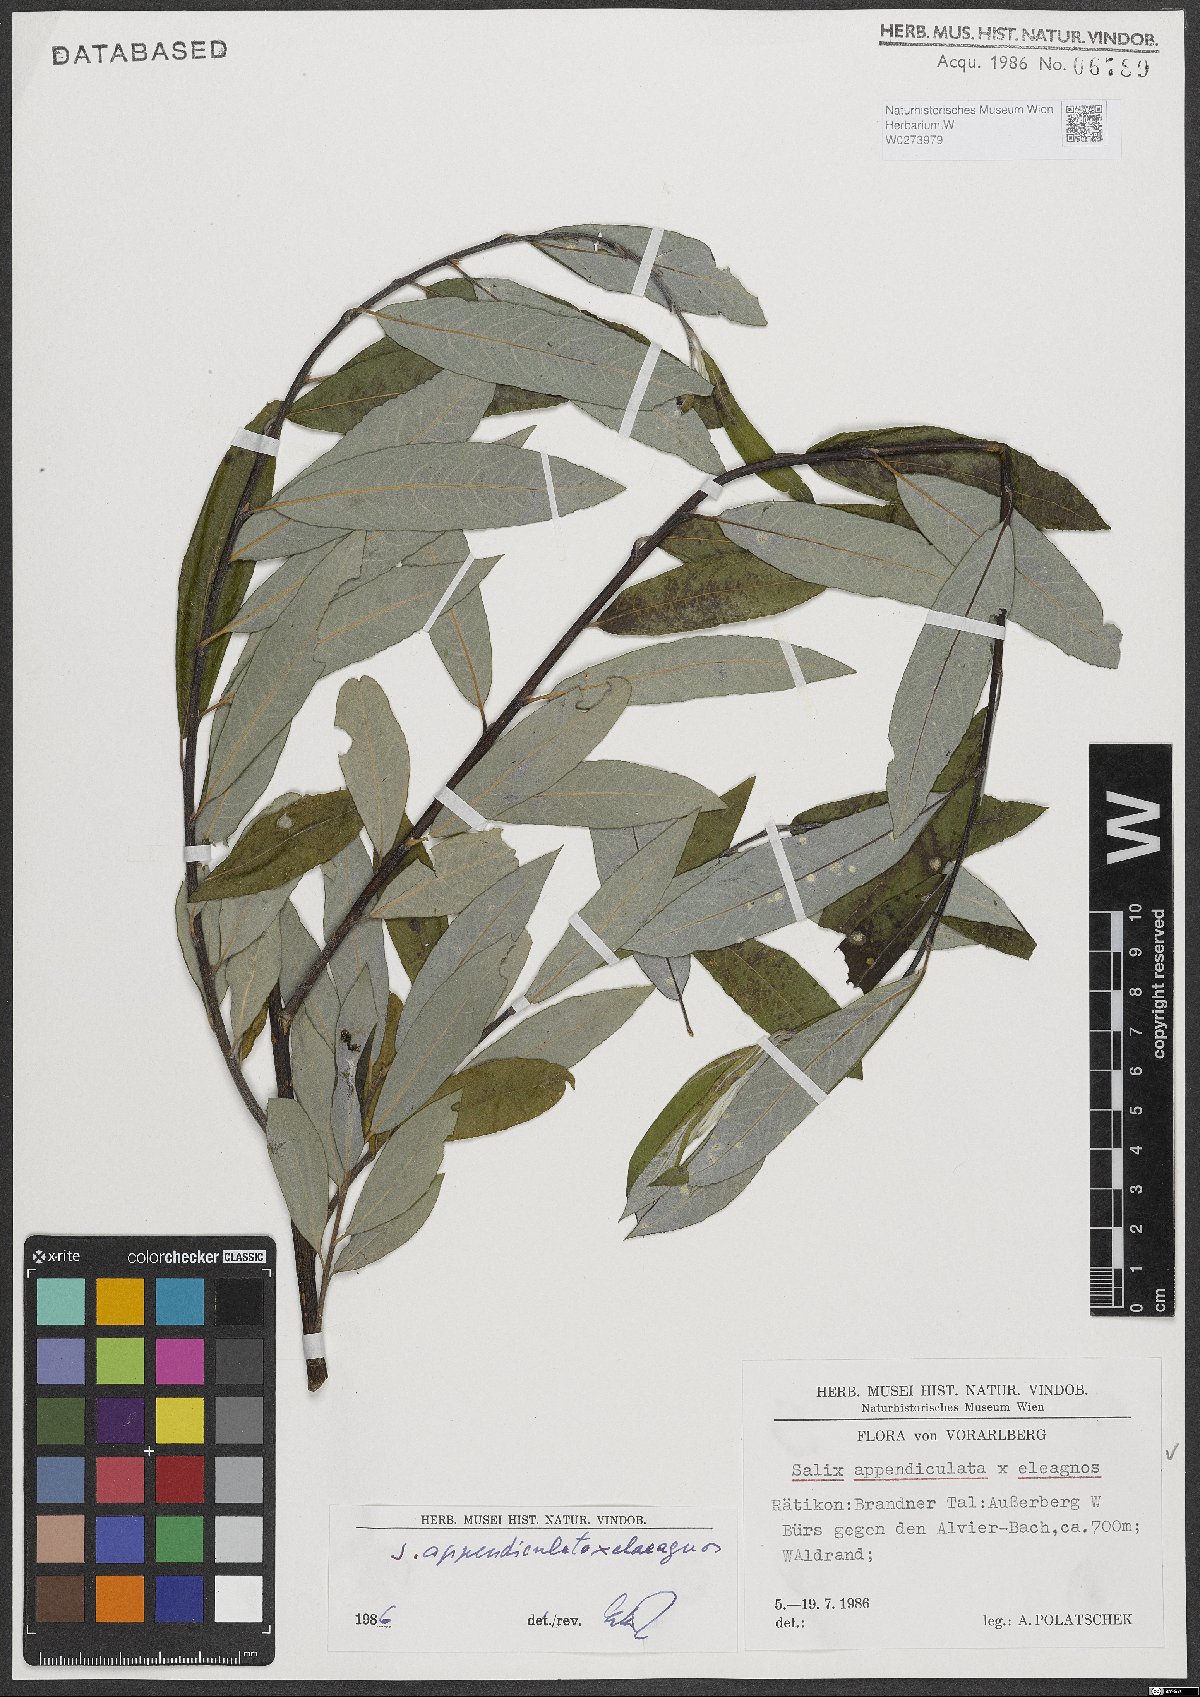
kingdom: Plantae
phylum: Tracheophyta
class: Magnoliopsida
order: Malpighiales
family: Salicaceae
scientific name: Salicaceae
